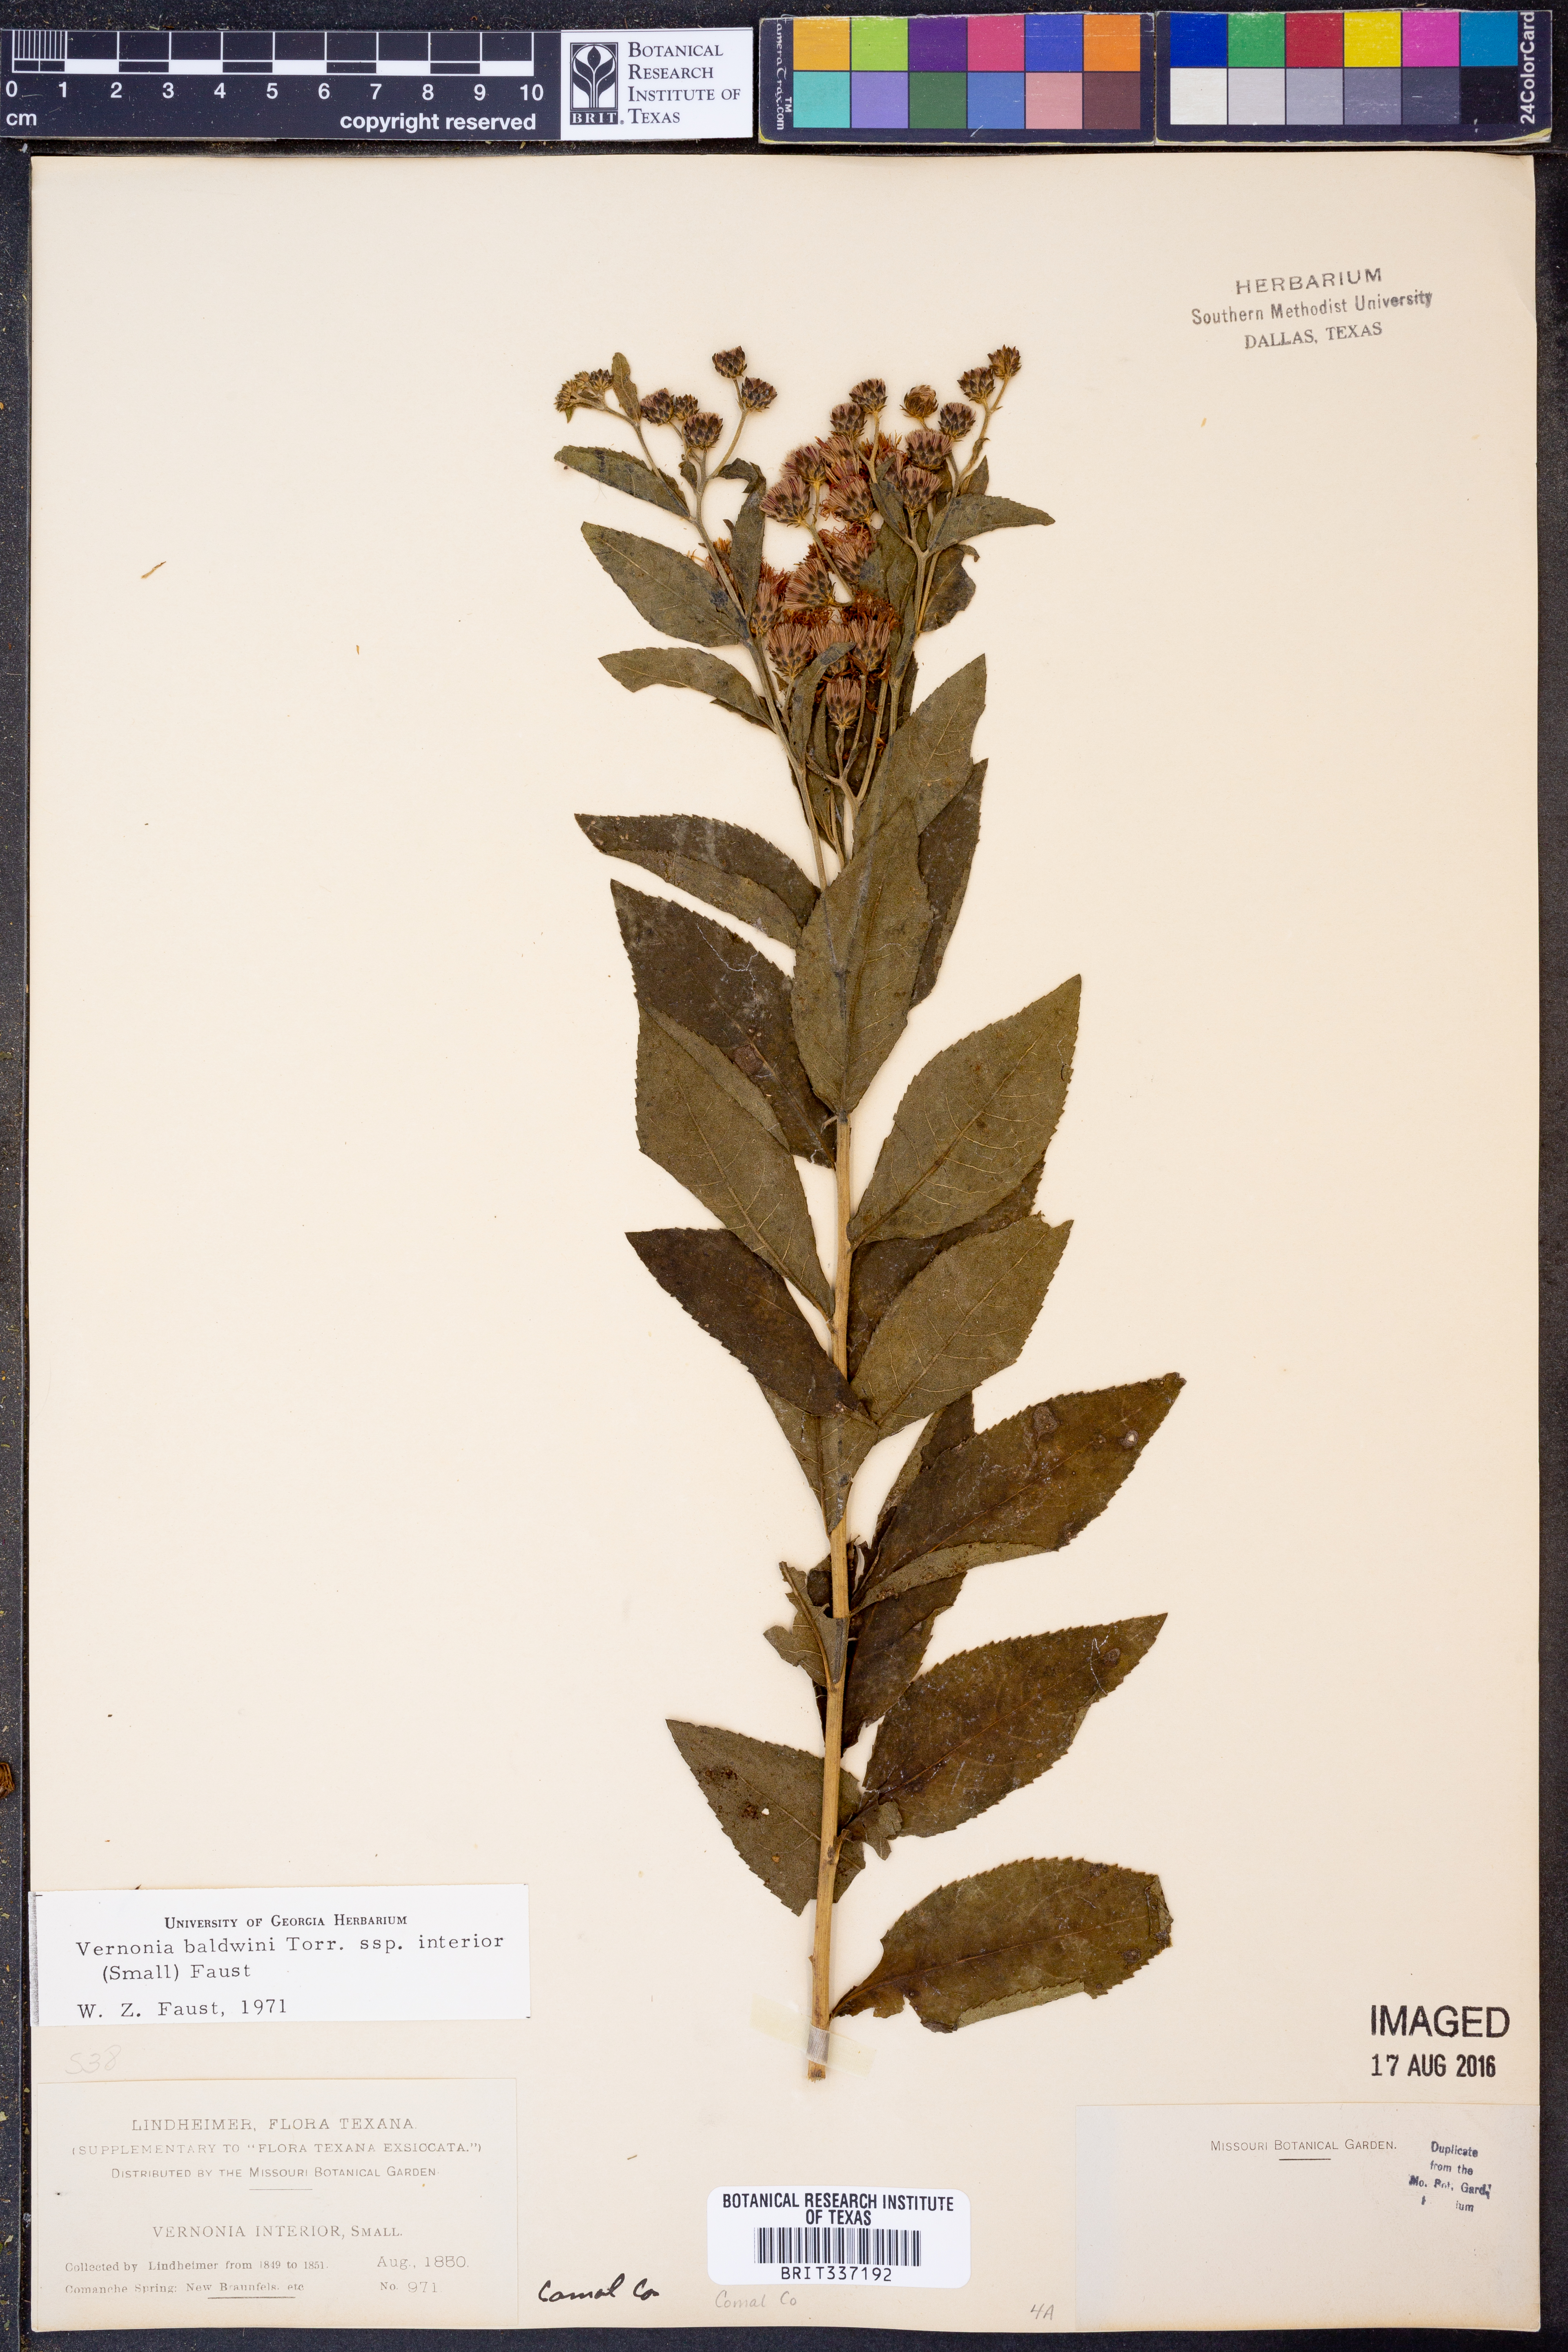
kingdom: Plantae
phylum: Tracheophyta
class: Magnoliopsida
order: Asterales
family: Asteraceae
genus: Vernonia
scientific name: Vernonia baldwinii
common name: Western ironweed
